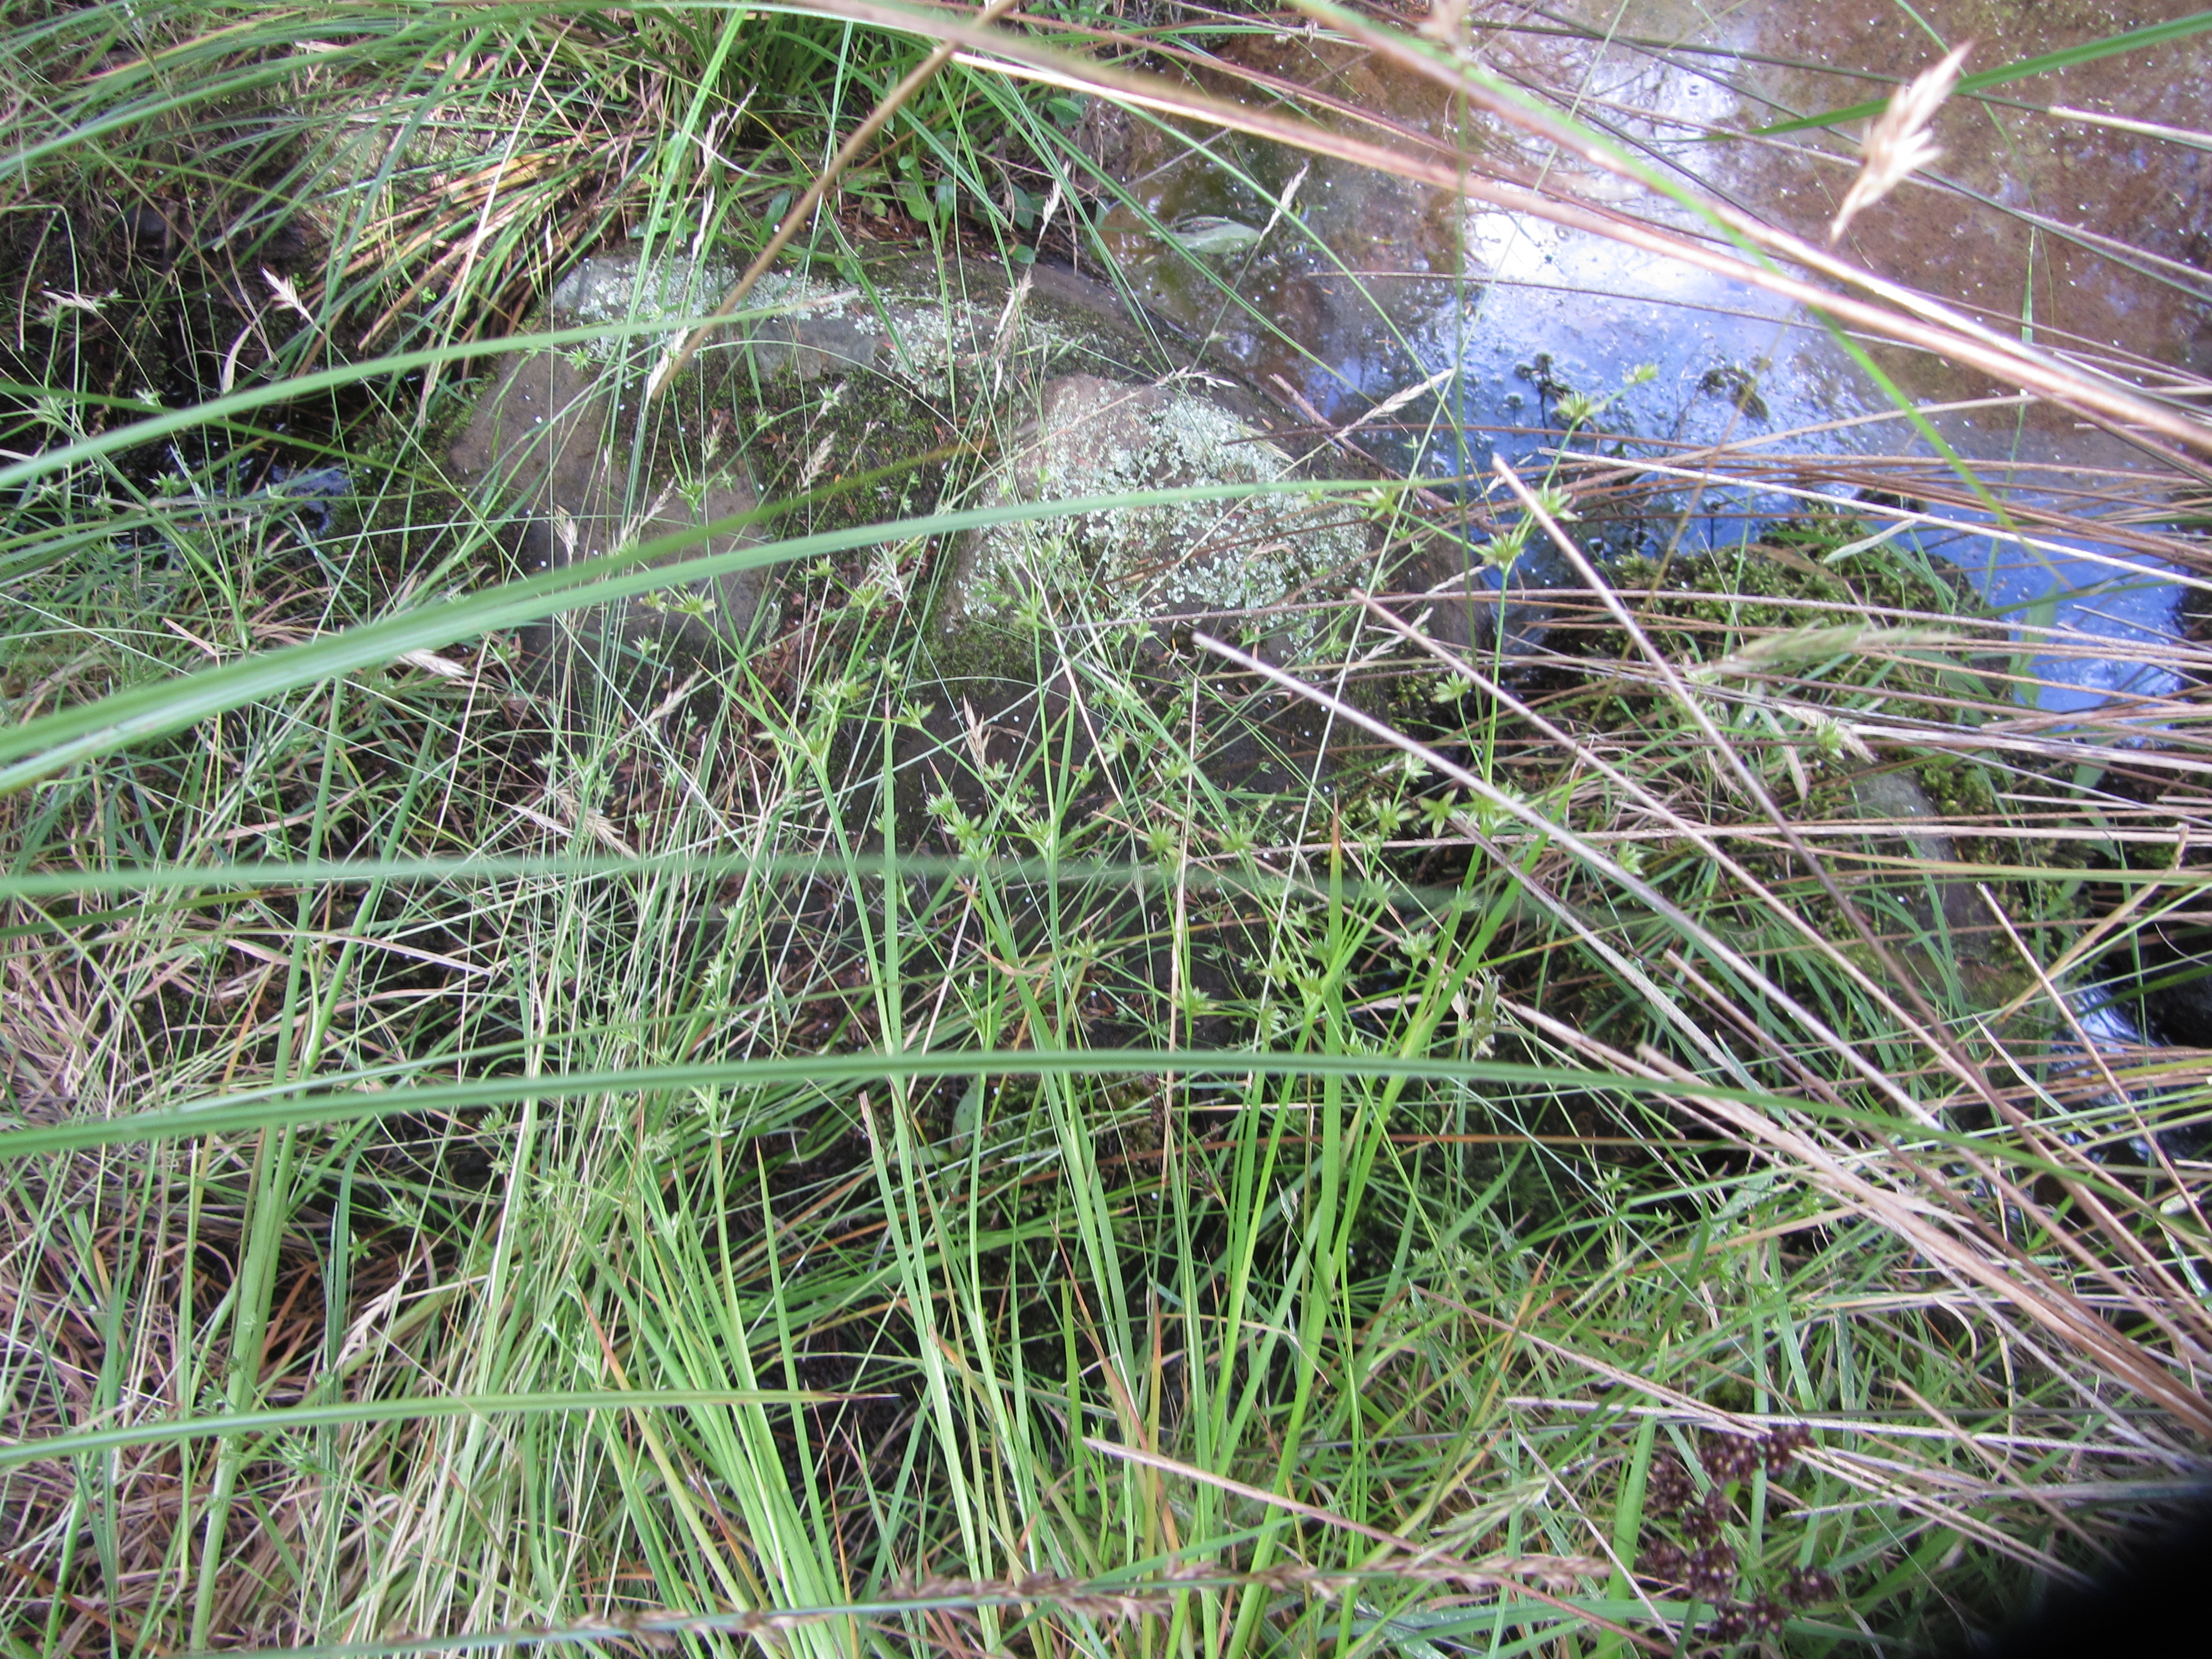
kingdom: Plantae
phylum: Tracheophyta
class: Liliopsida
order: Poales
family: Juncaceae
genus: Juncus
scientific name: Juncus prismatocarpus
